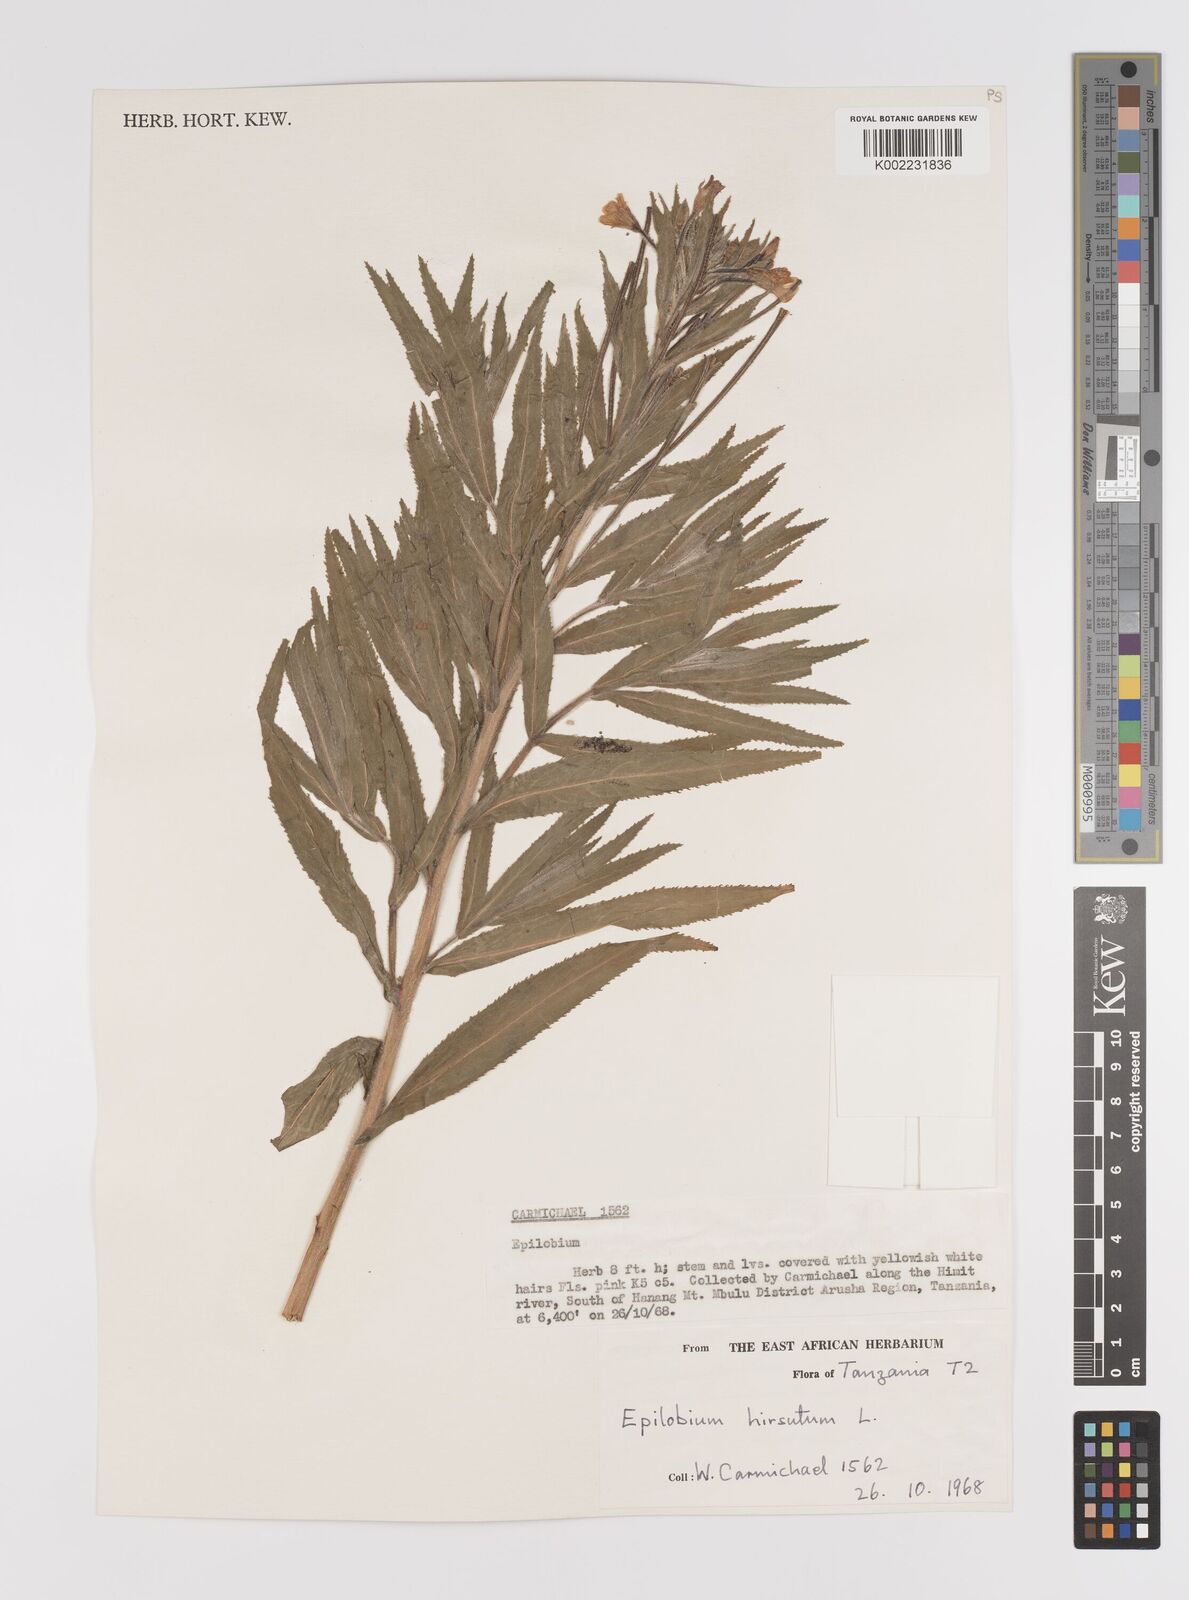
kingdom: Plantae
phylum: Tracheophyta
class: Magnoliopsida
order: Myrtales
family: Onagraceae
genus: Epilobium
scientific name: Epilobium hirsutum
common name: Great willowherb
